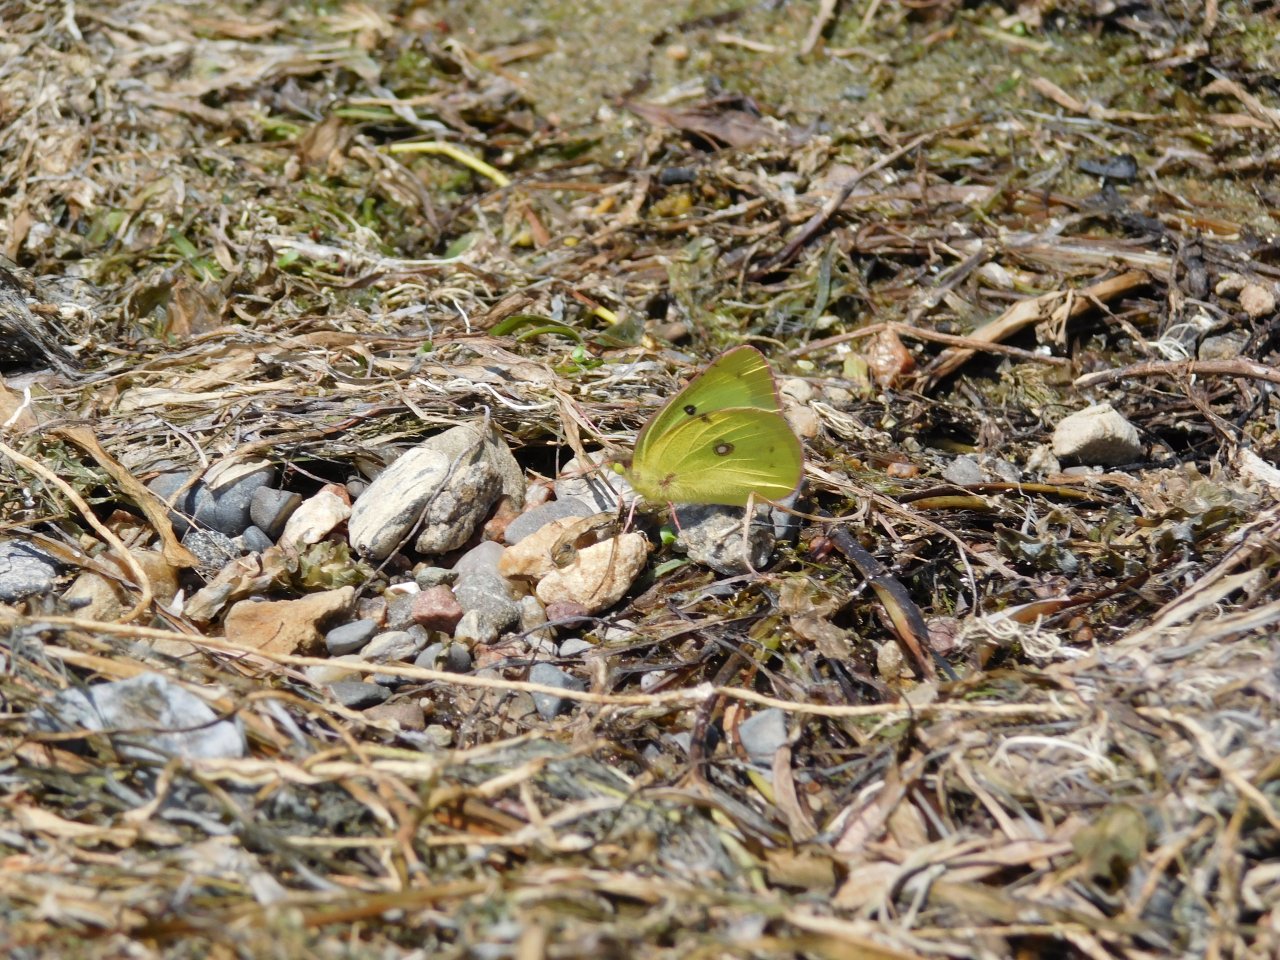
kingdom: Animalia
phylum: Arthropoda
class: Insecta
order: Lepidoptera
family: Pieridae
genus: Colias
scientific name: Colias philodice
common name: Clouded Sulphur
